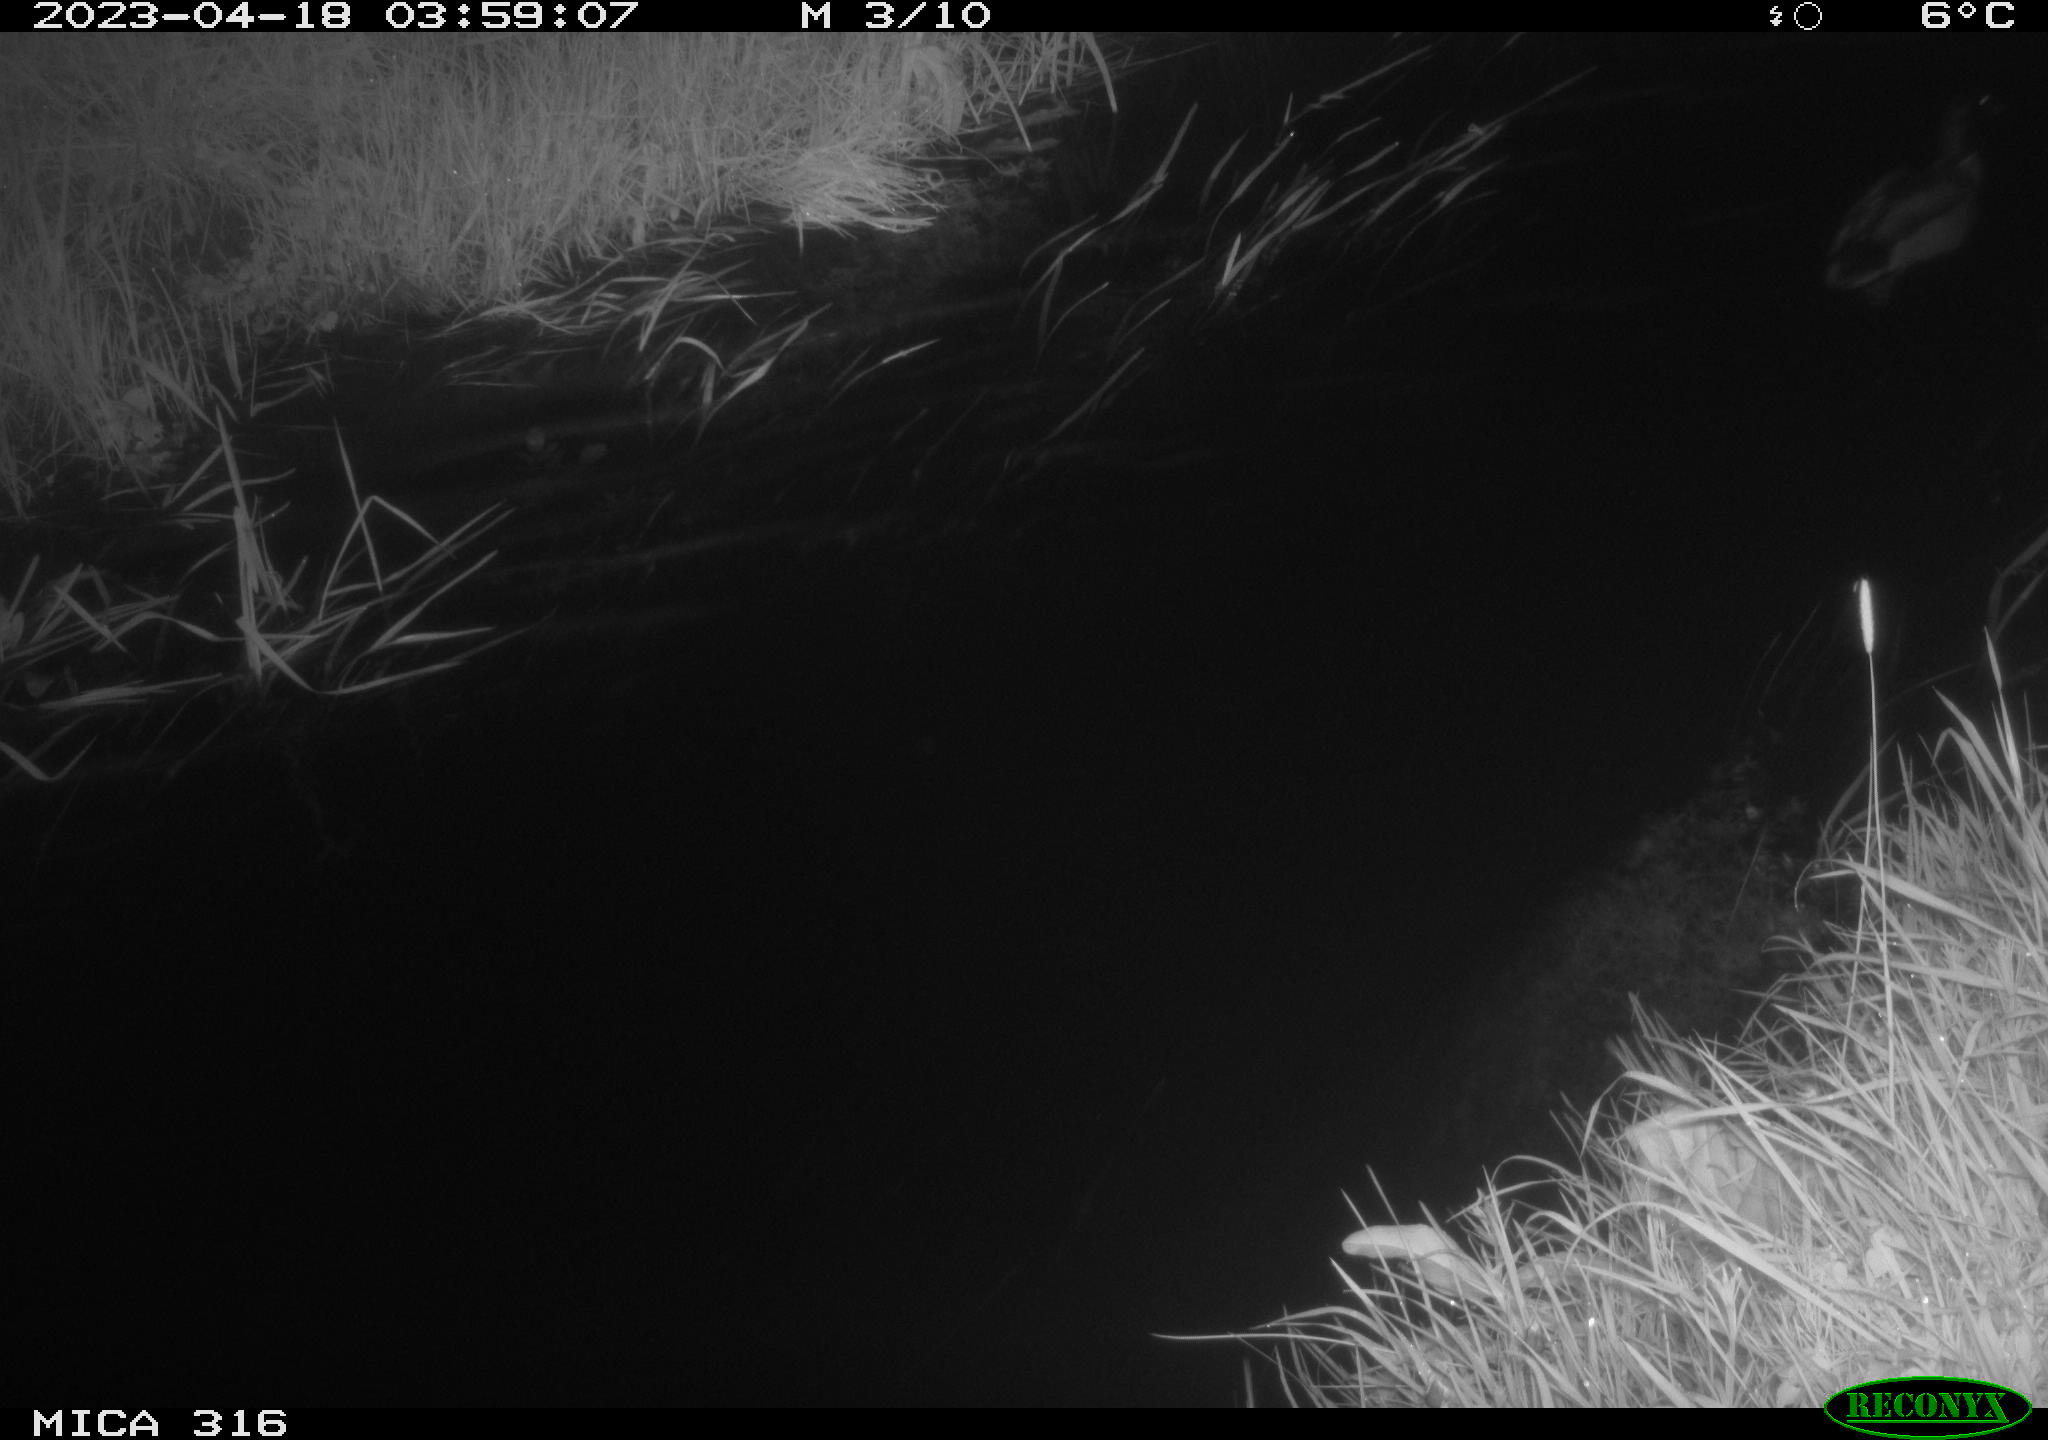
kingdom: Animalia
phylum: Chordata
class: Aves
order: Anseriformes
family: Anatidae
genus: Anas
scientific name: Anas
